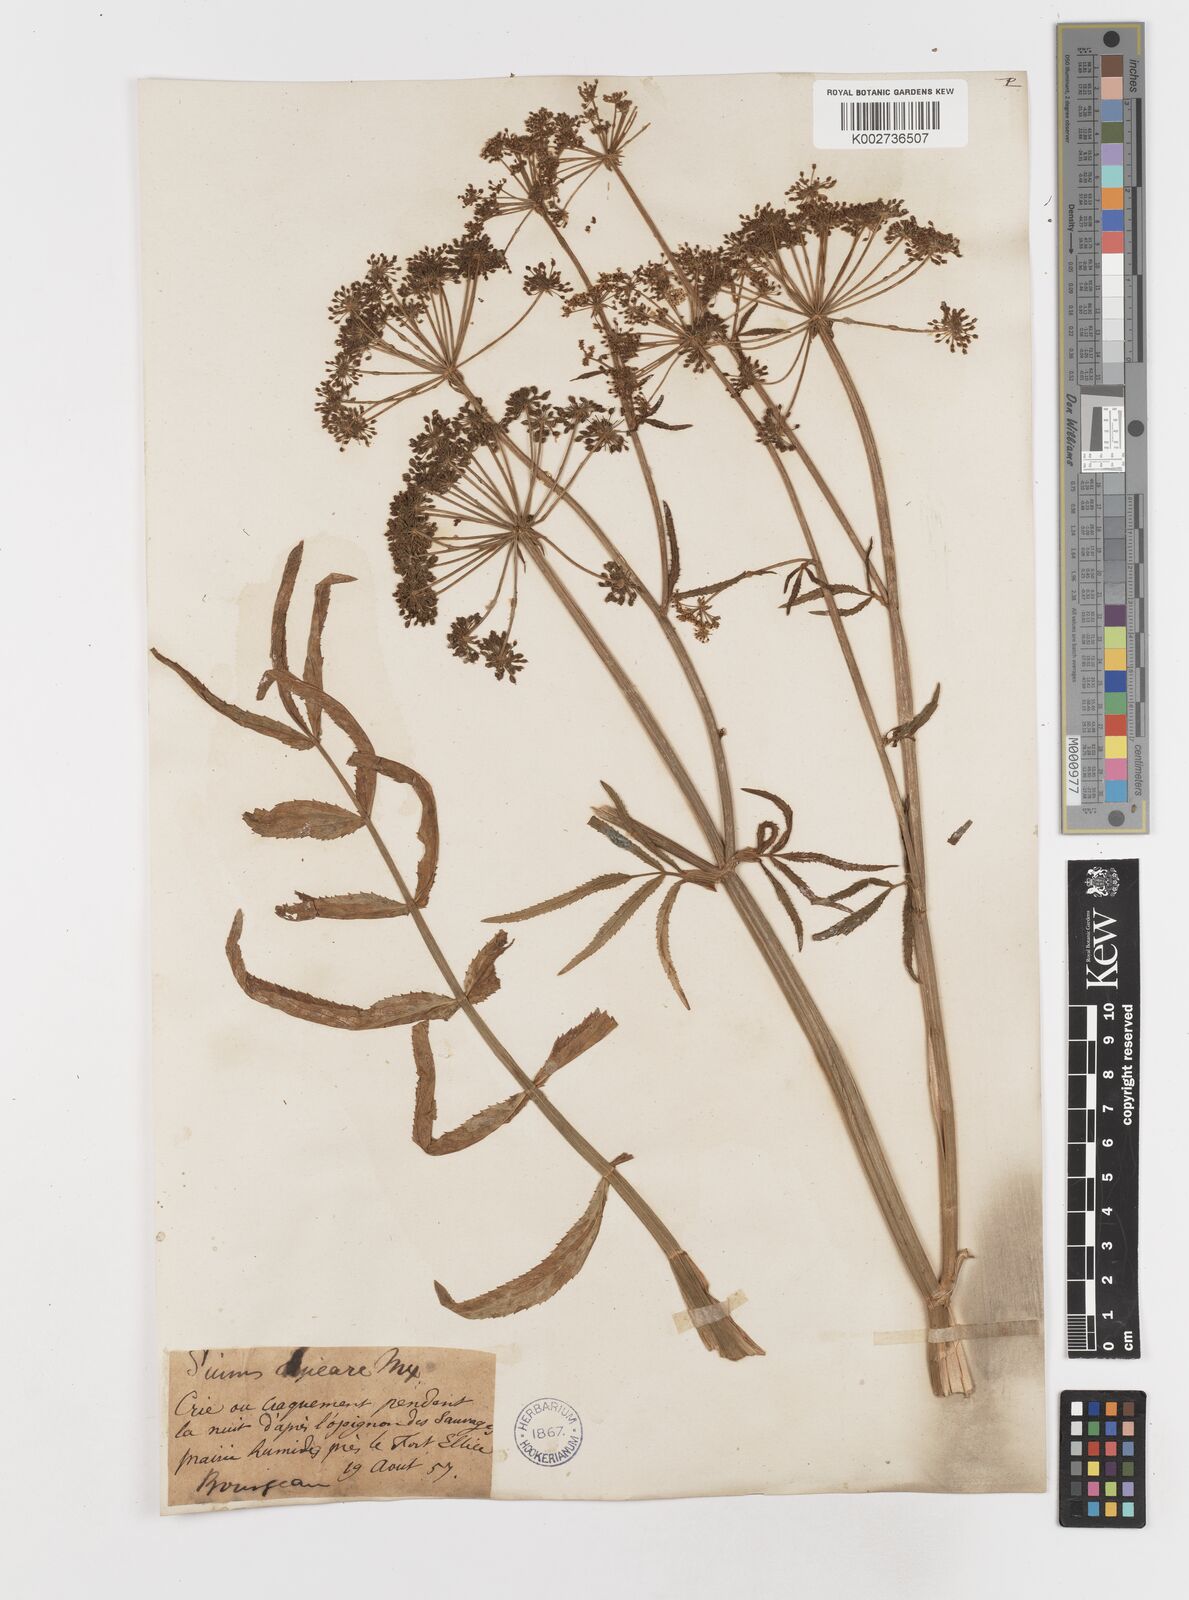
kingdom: Plantae
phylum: Tracheophyta
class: Magnoliopsida
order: Apiales
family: Apiaceae
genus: Sium
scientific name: Sium suave
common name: Hemlock water-parsnip
